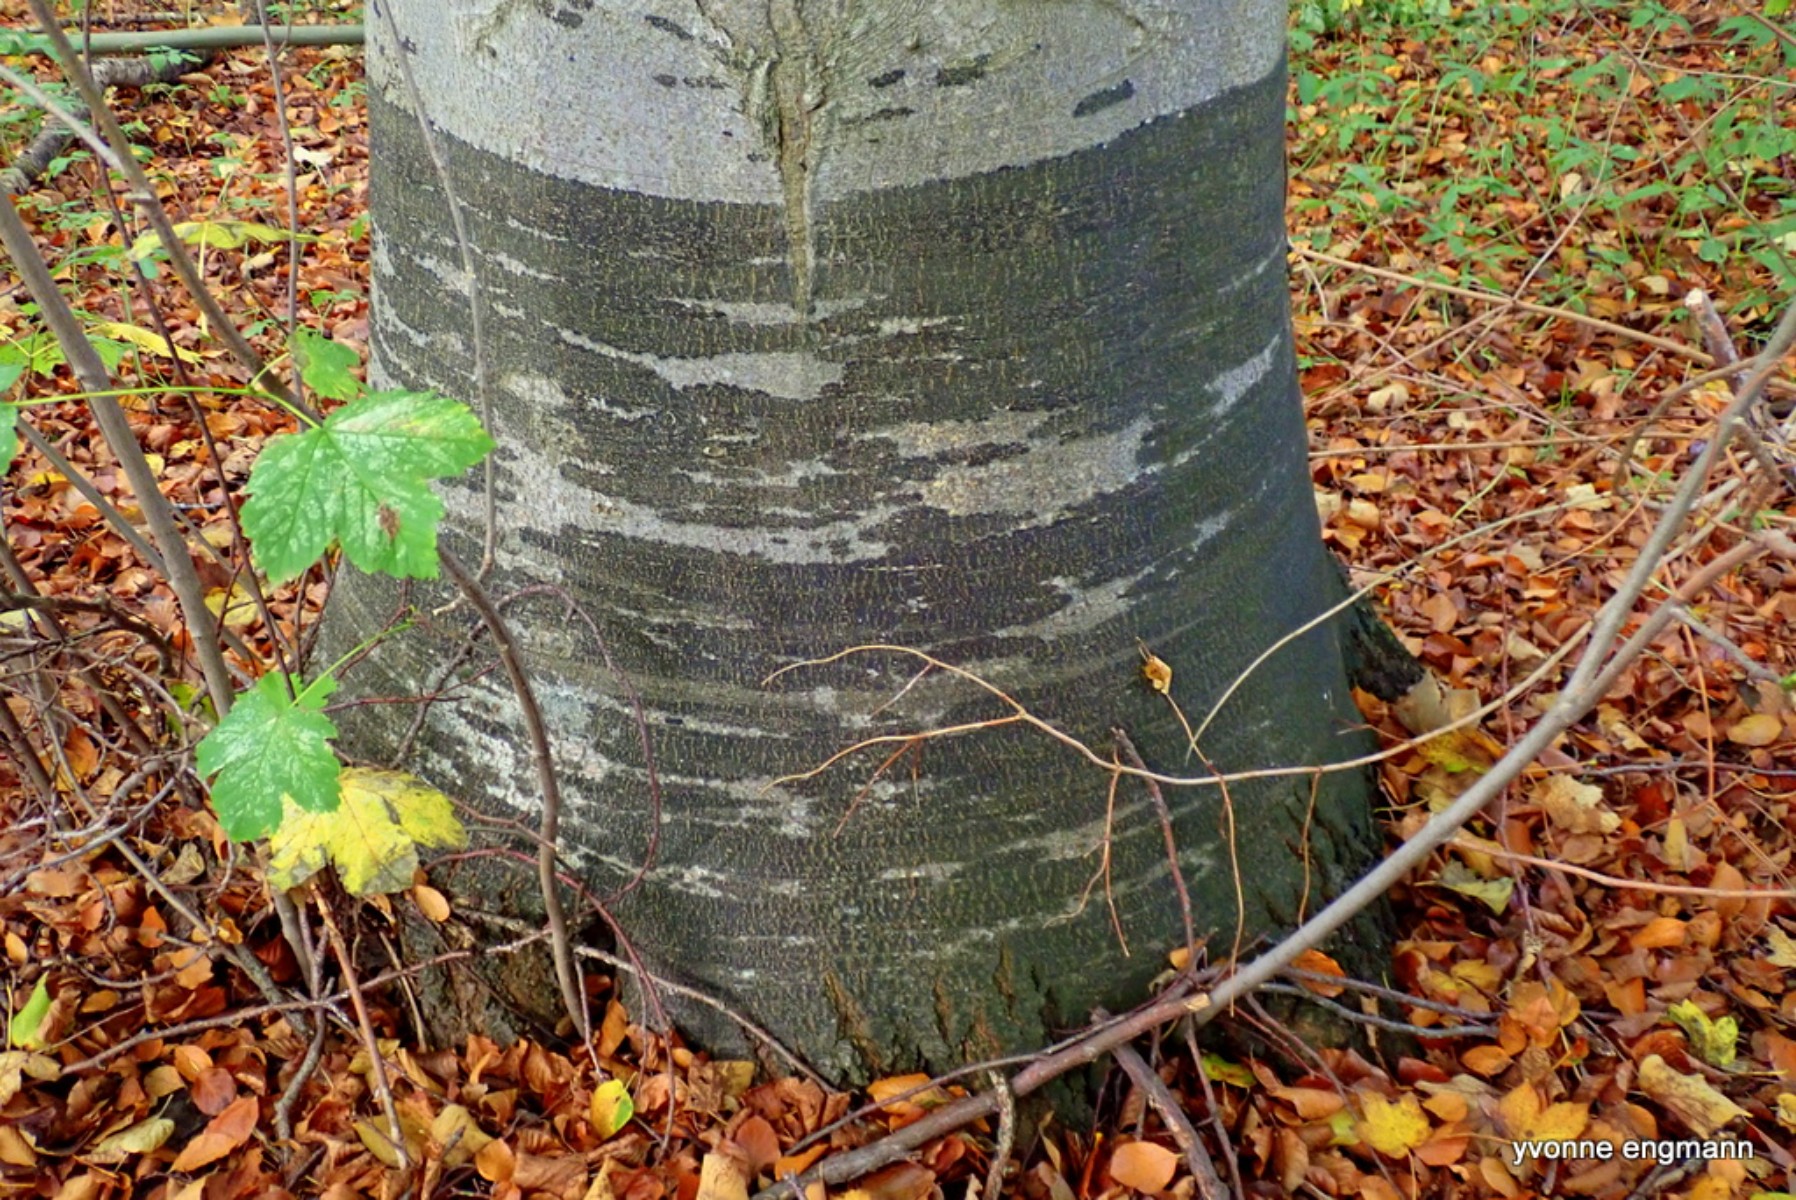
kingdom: Fungi
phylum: Ascomycota
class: Leotiomycetes
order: Rhytismatales
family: Ascodichaenaceae
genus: Ascodichaena
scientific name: Ascodichaena rugosa
